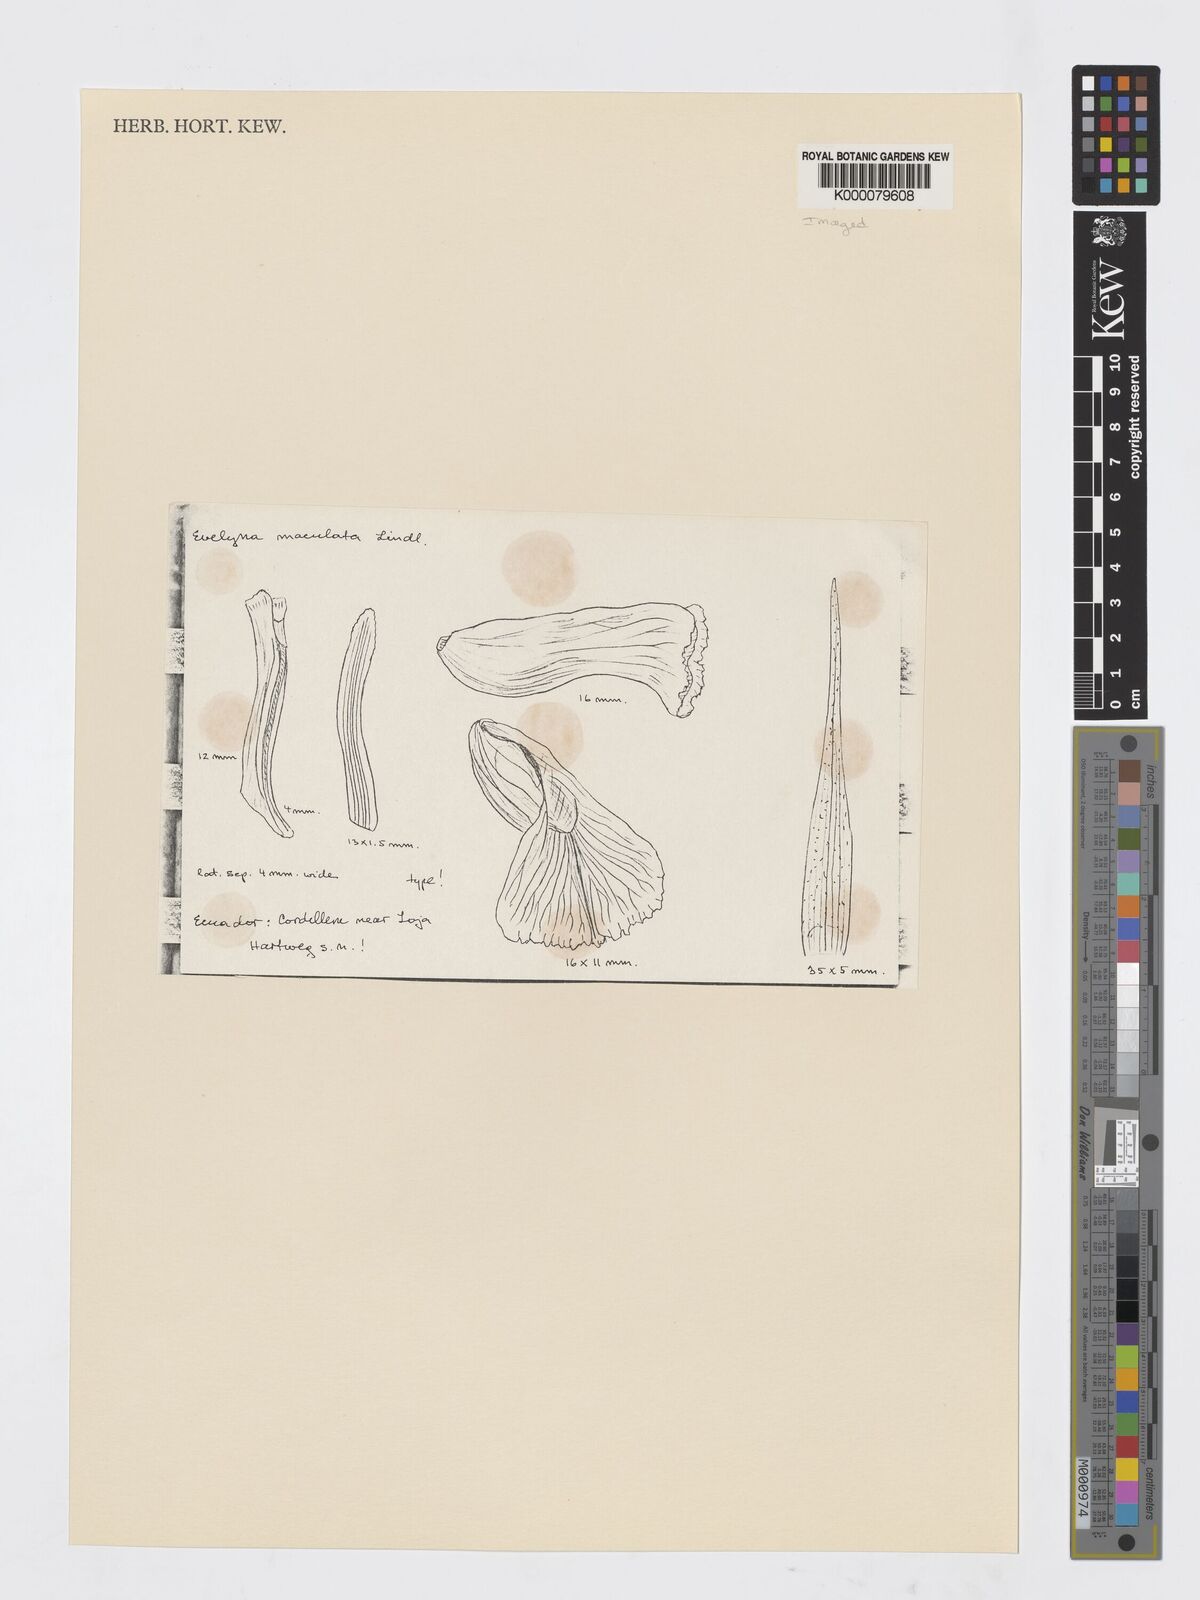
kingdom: Plantae
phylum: Tracheophyta
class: Liliopsida
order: Asparagales
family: Orchidaceae
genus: Elleanthus
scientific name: Elleanthus maculatus
